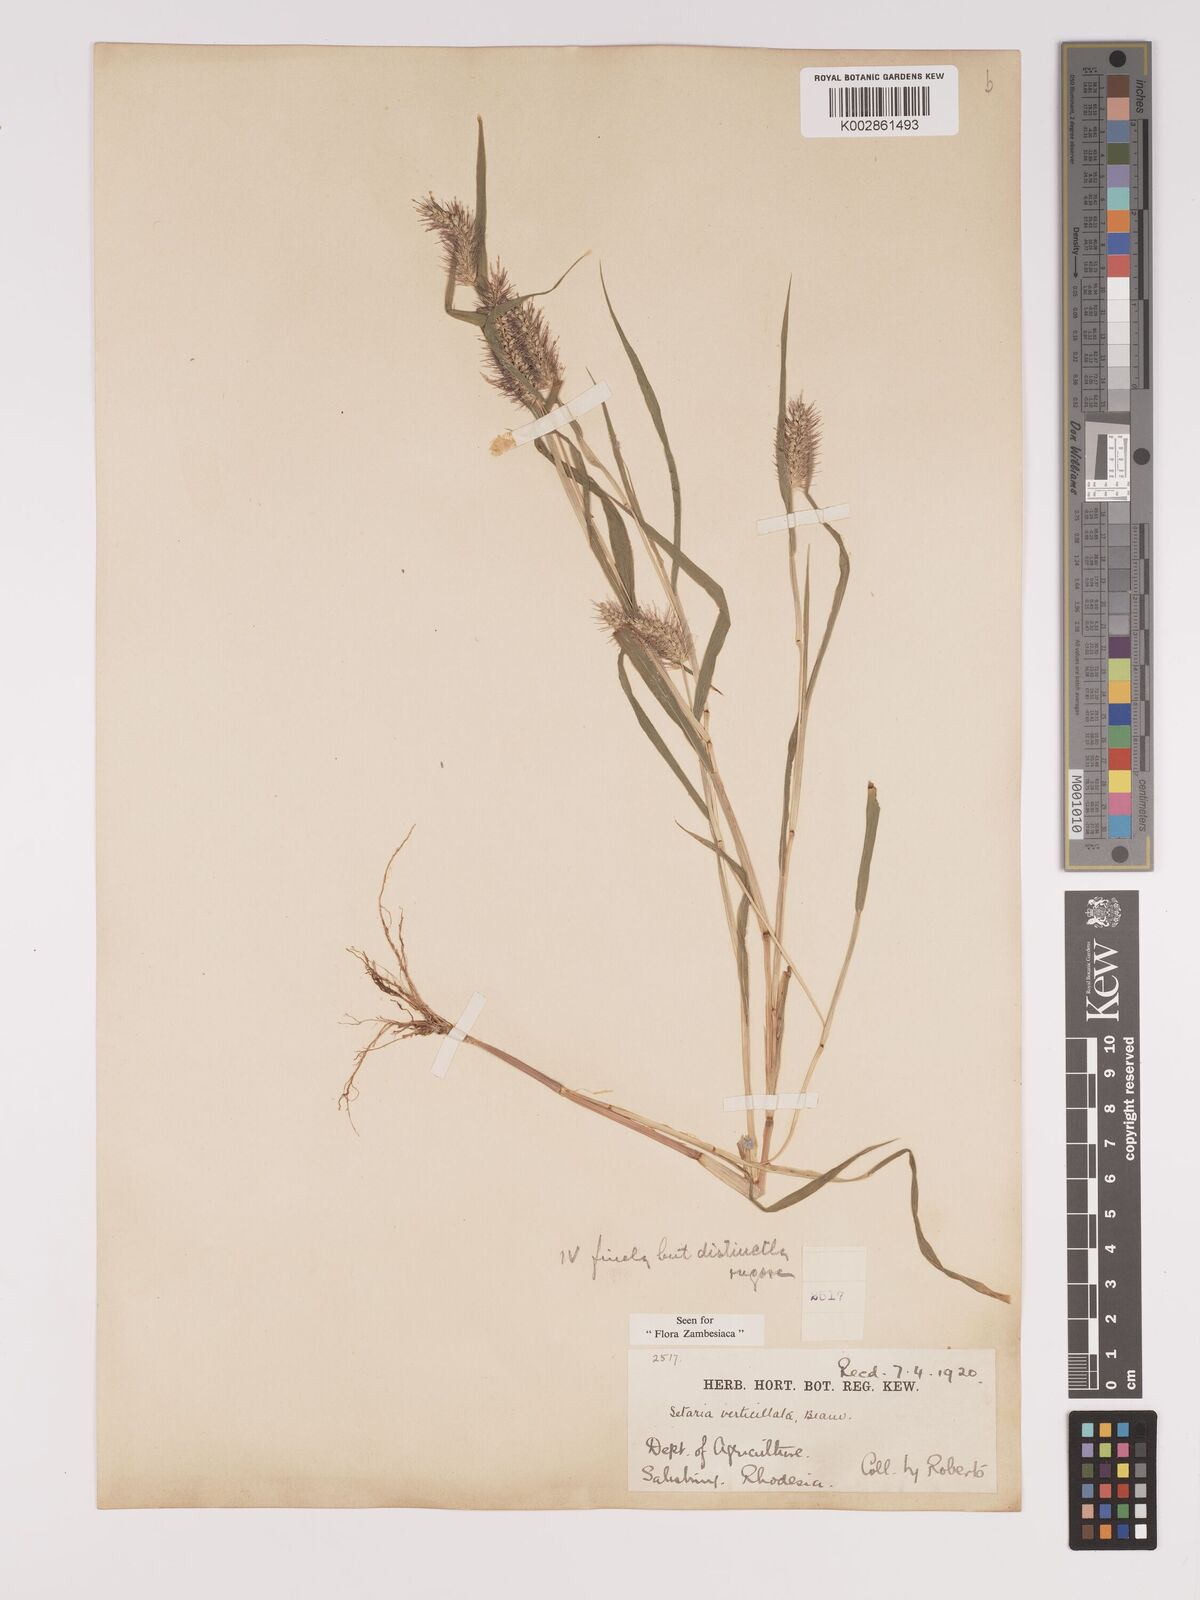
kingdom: Plantae
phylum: Tracheophyta
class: Liliopsida
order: Poales
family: Poaceae
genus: Setaria
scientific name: Setaria verticillata
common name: Hooked bristlegrass
